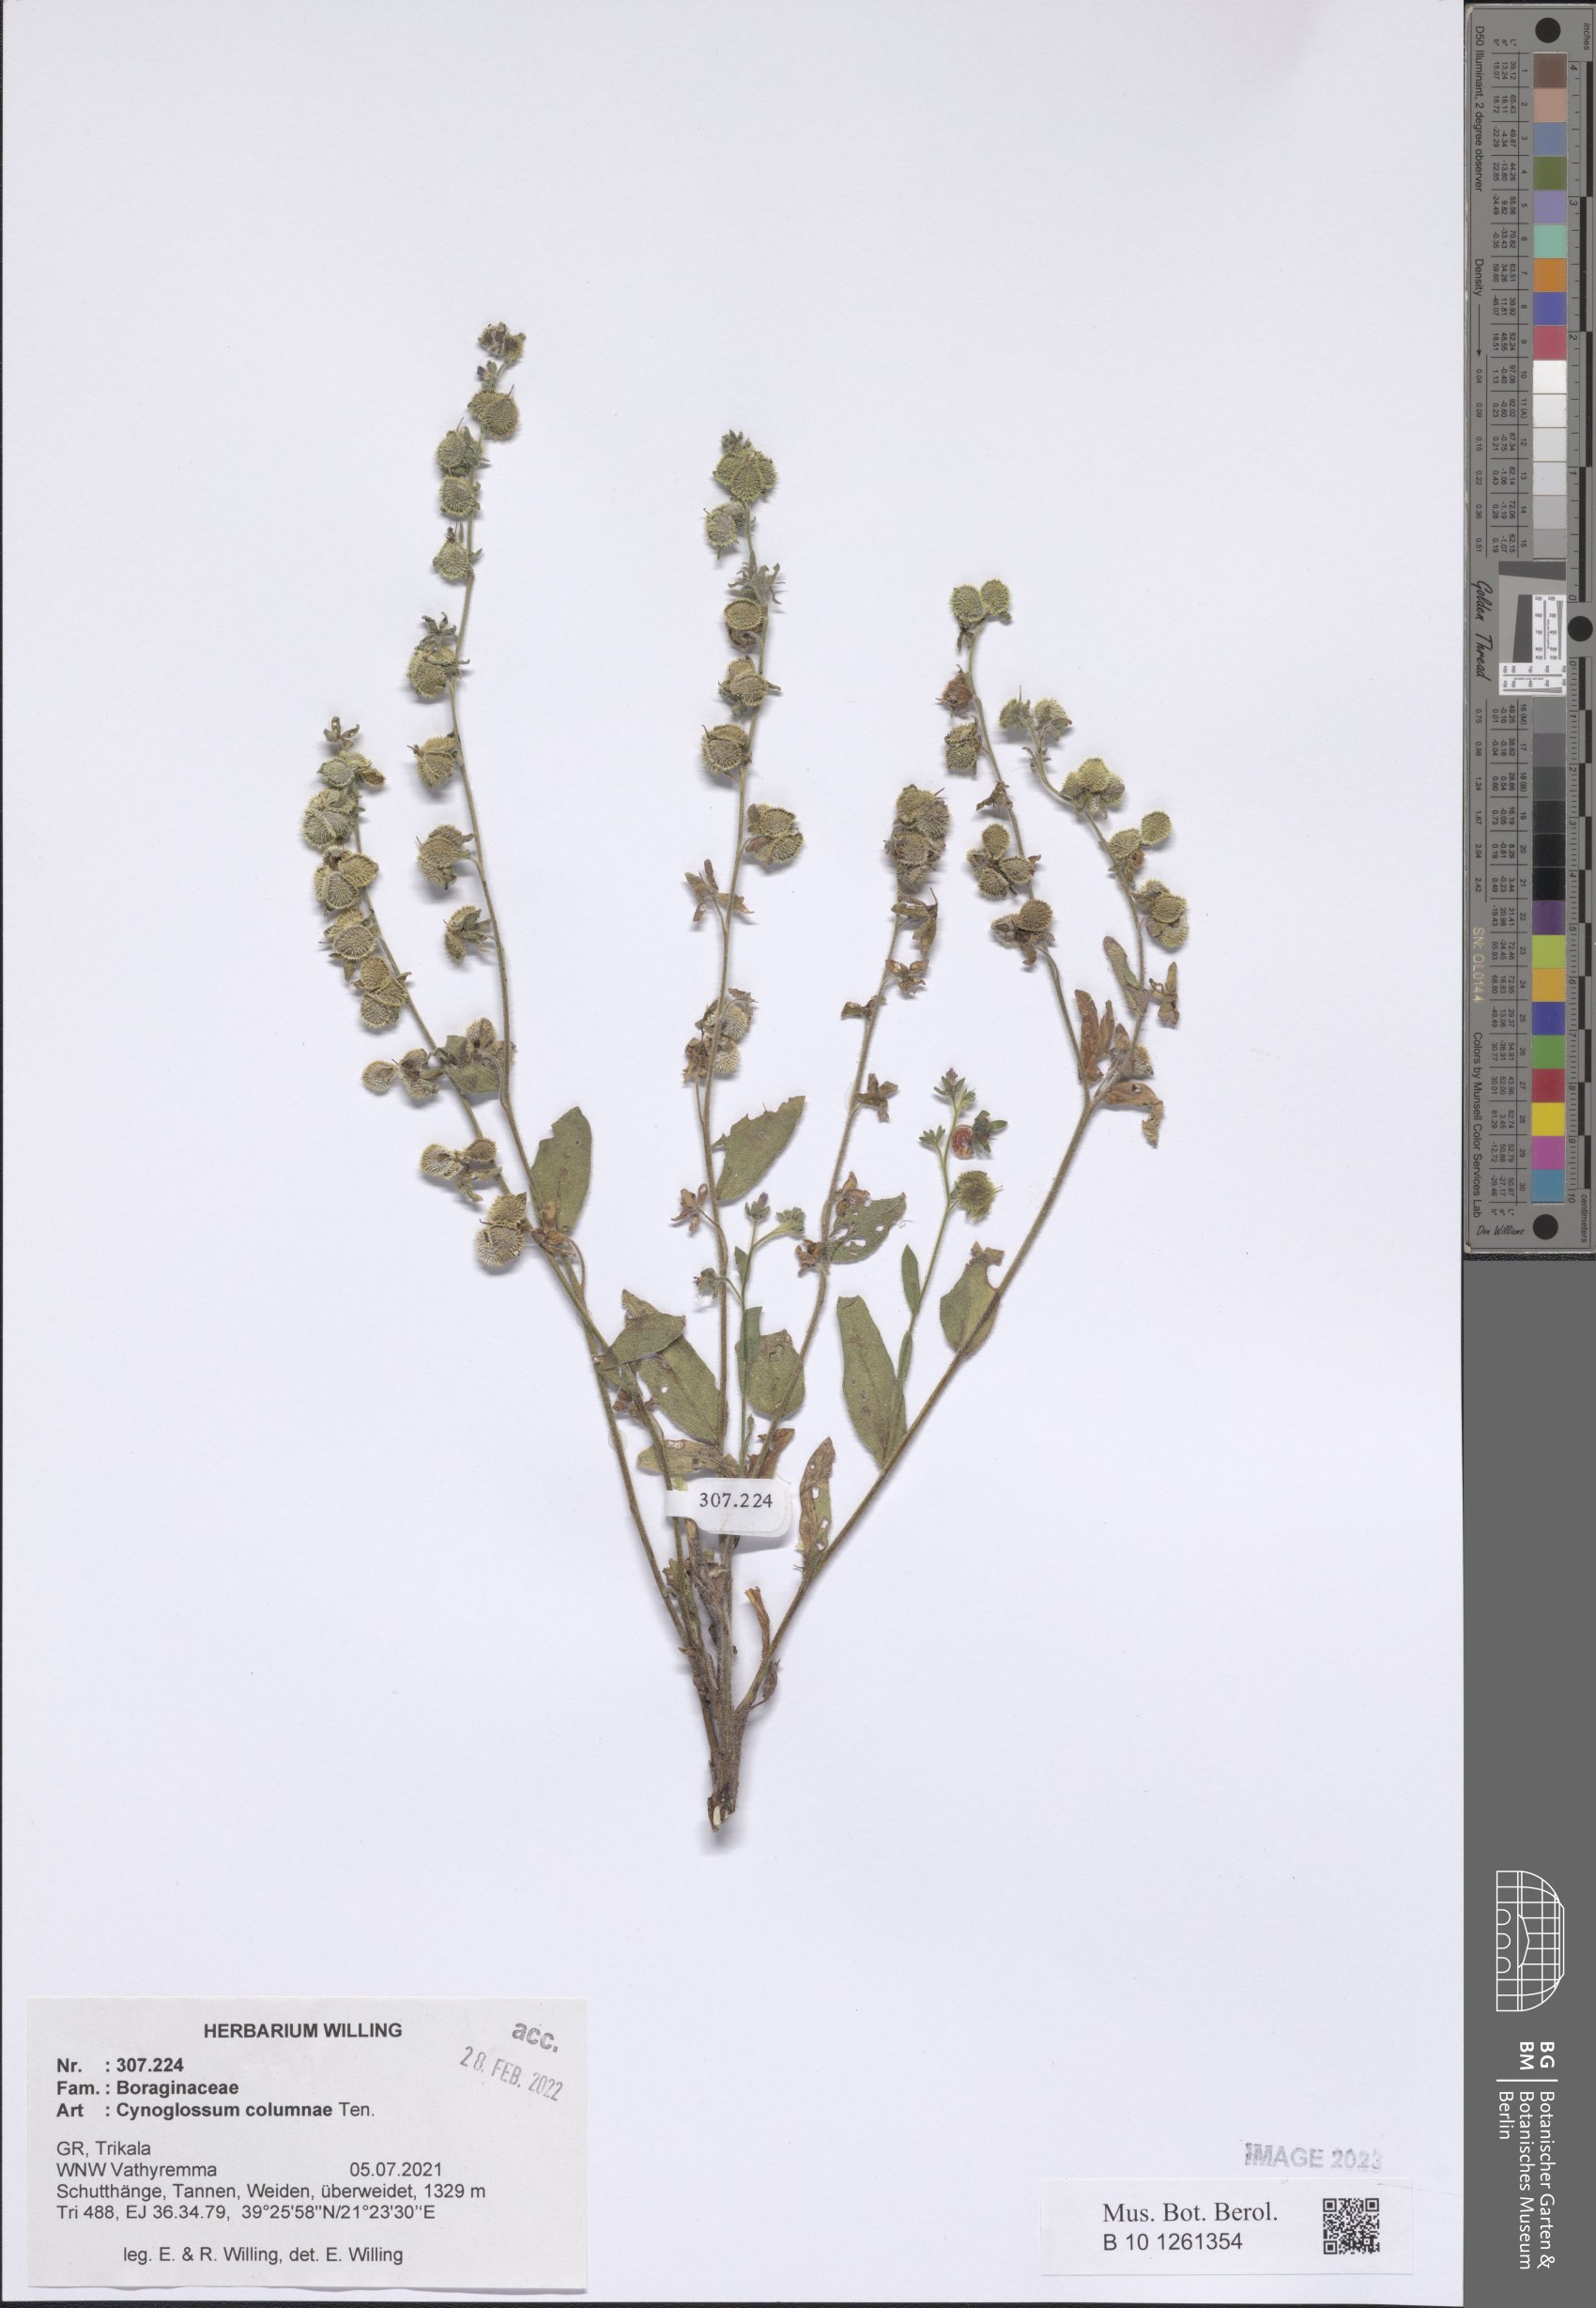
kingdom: Plantae
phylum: Tracheophyta
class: Magnoliopsida
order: Boraginales
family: Boraginaceae
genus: Rindera
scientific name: Rindera columnae
